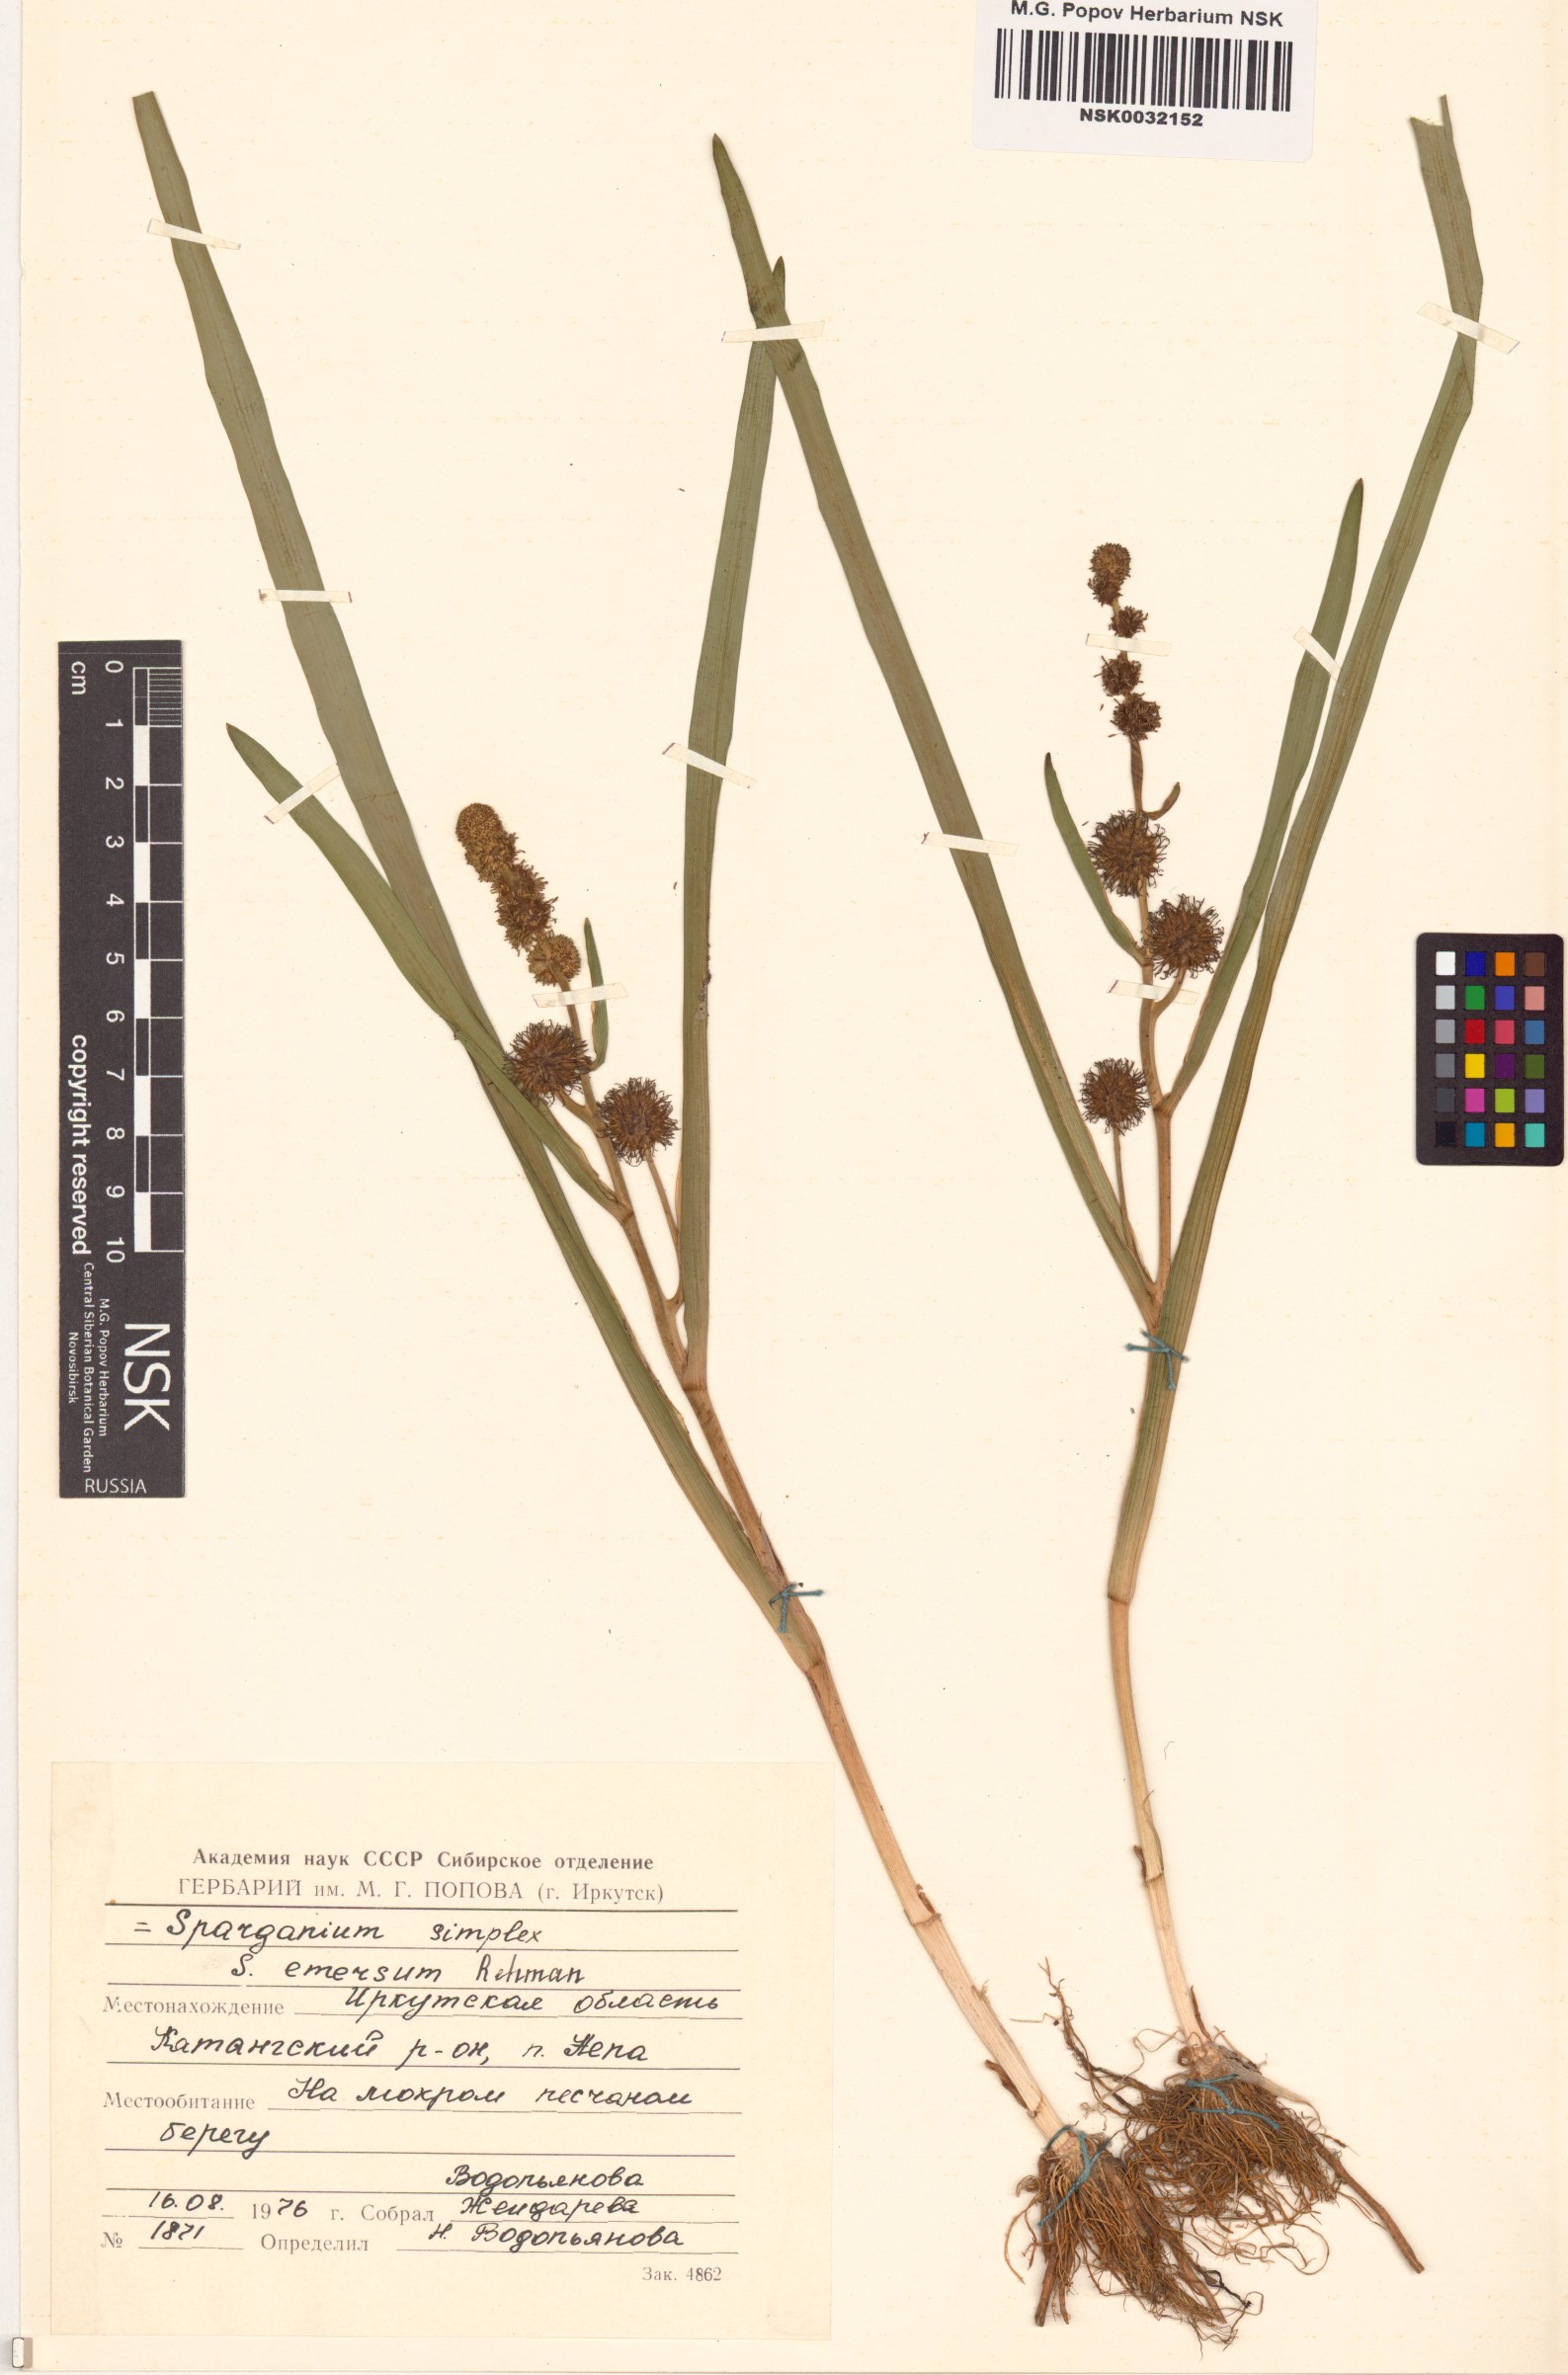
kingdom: Plantae
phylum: Tracheophyta
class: Liliopsida
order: Poales
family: Typhaceae
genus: Sparganium
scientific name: Sparganium emersum
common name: Unbranched bur-reed
